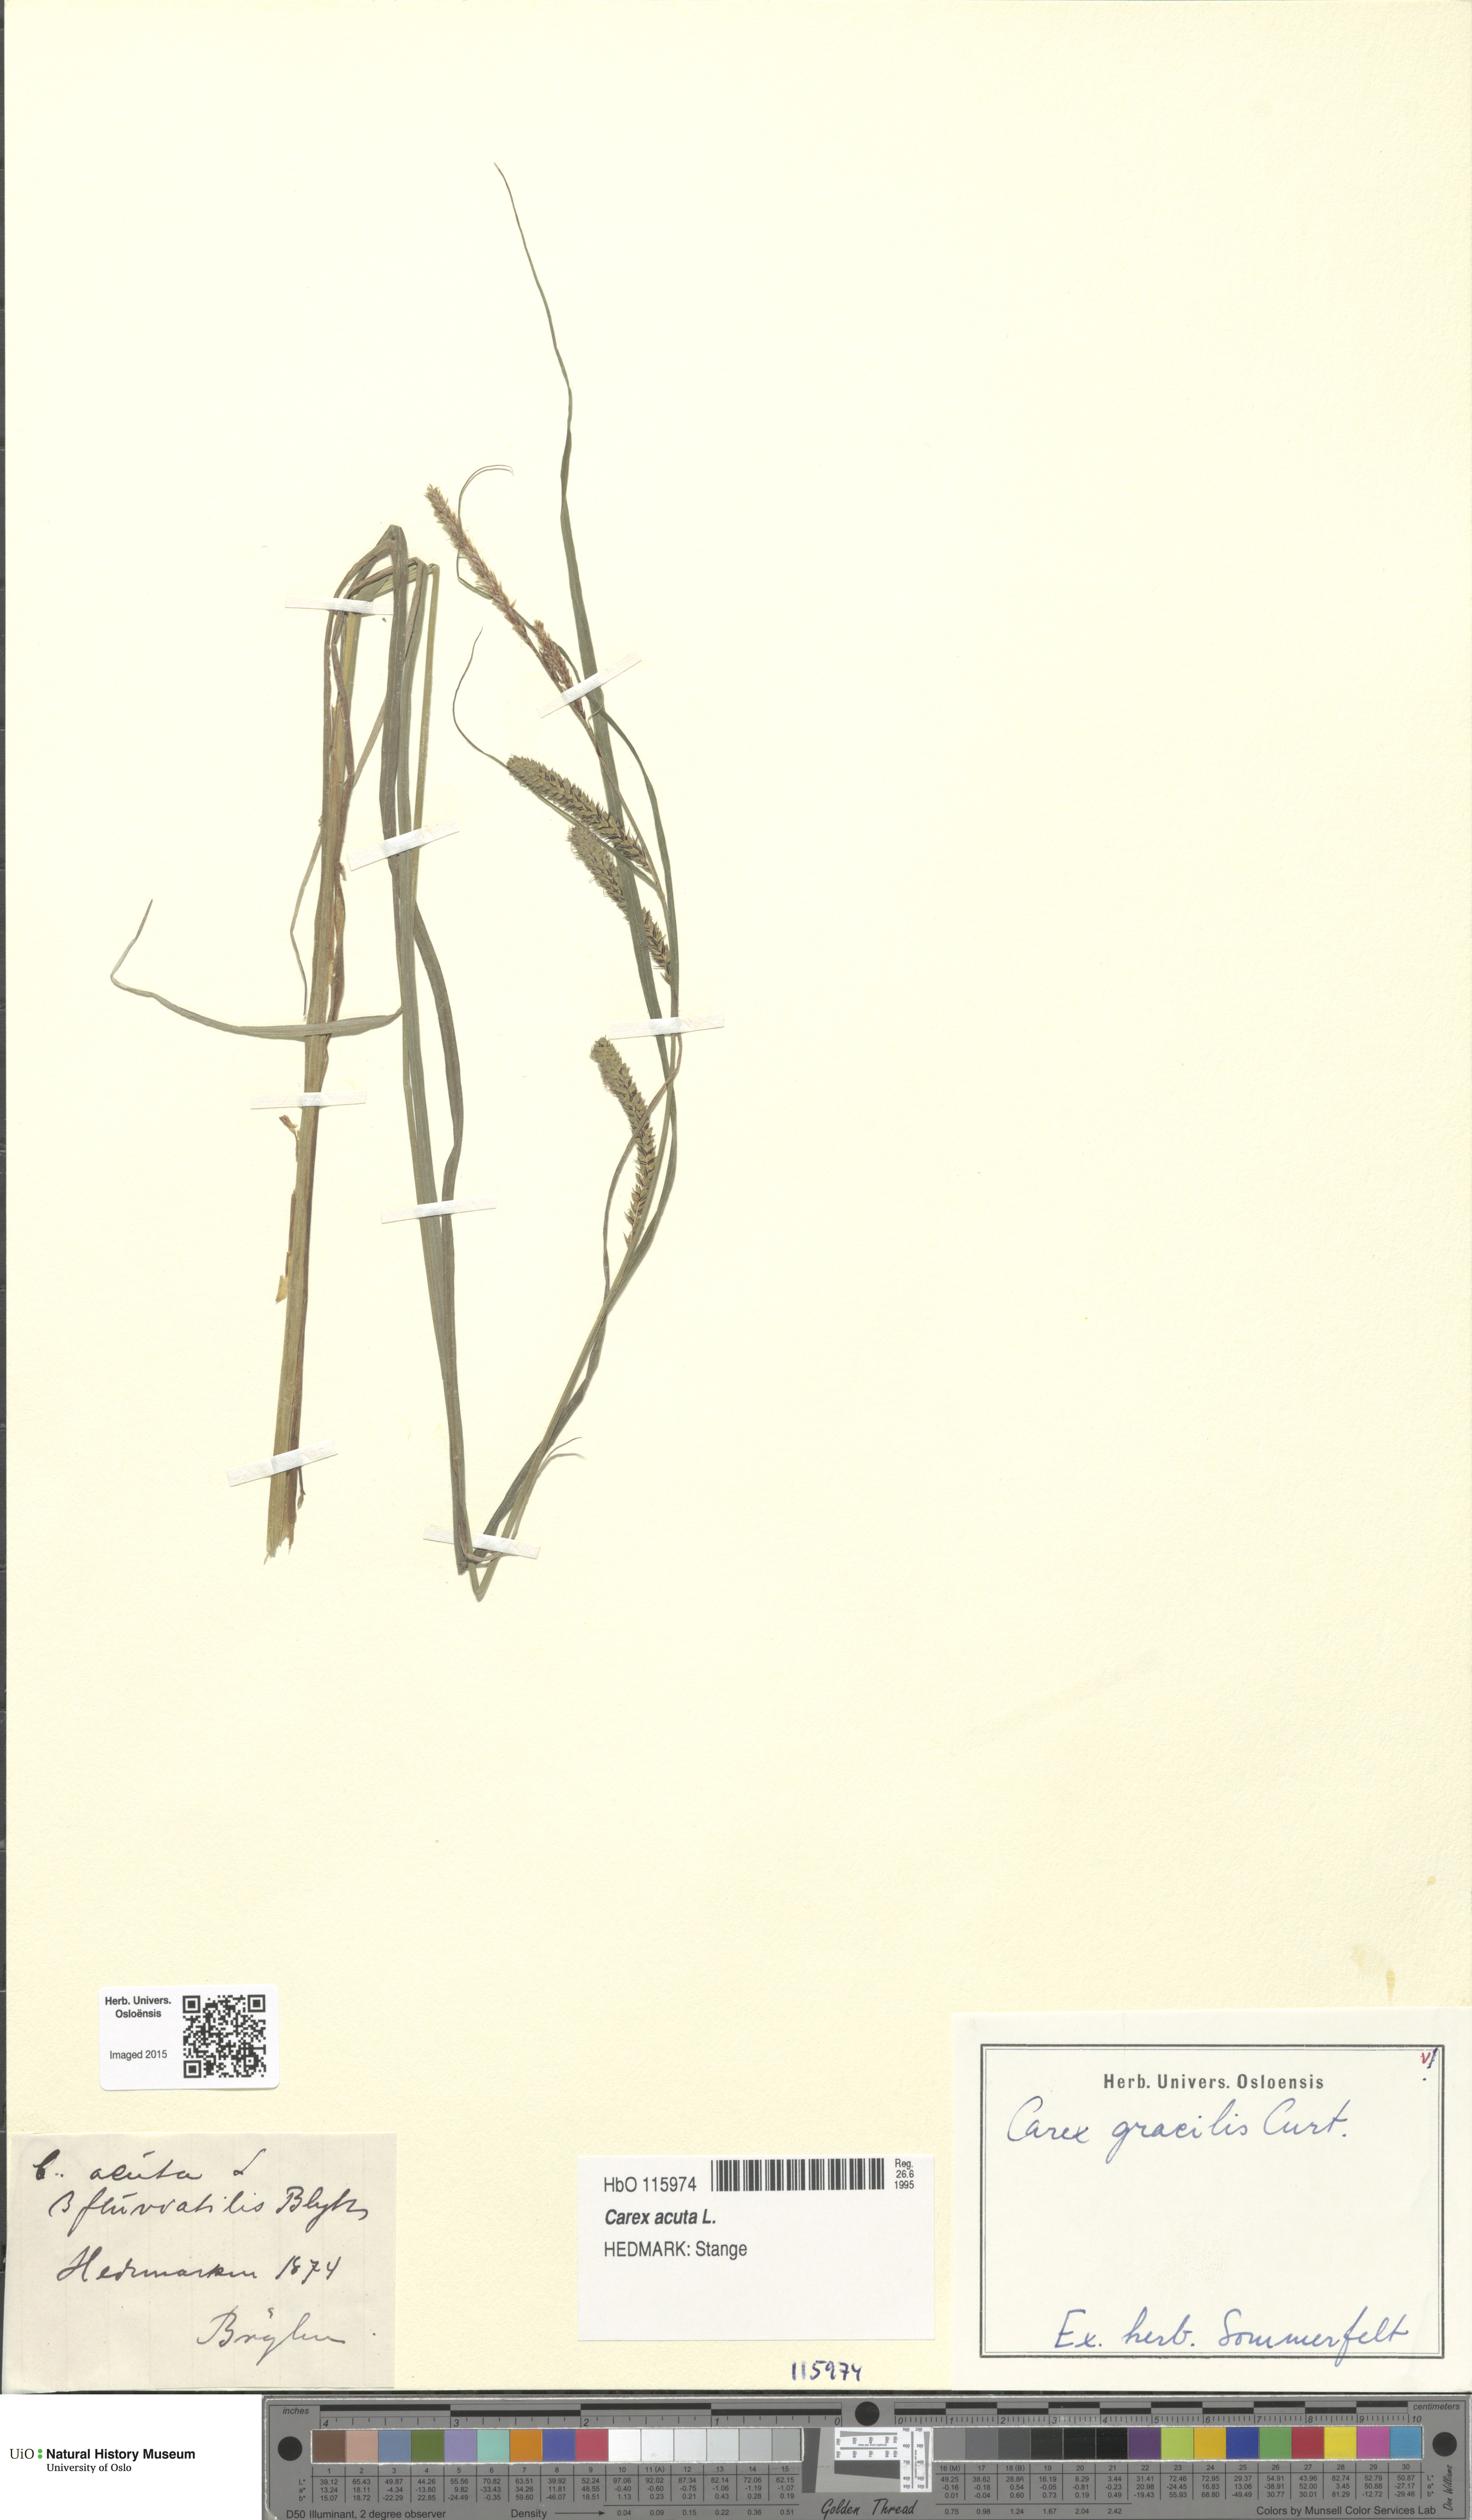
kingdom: Plantae
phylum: Tracheophyta
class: Liliopsida
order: Poales
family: Cyperaceae
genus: Carex
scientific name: Carex acuta
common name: Slender tufted-sedge
